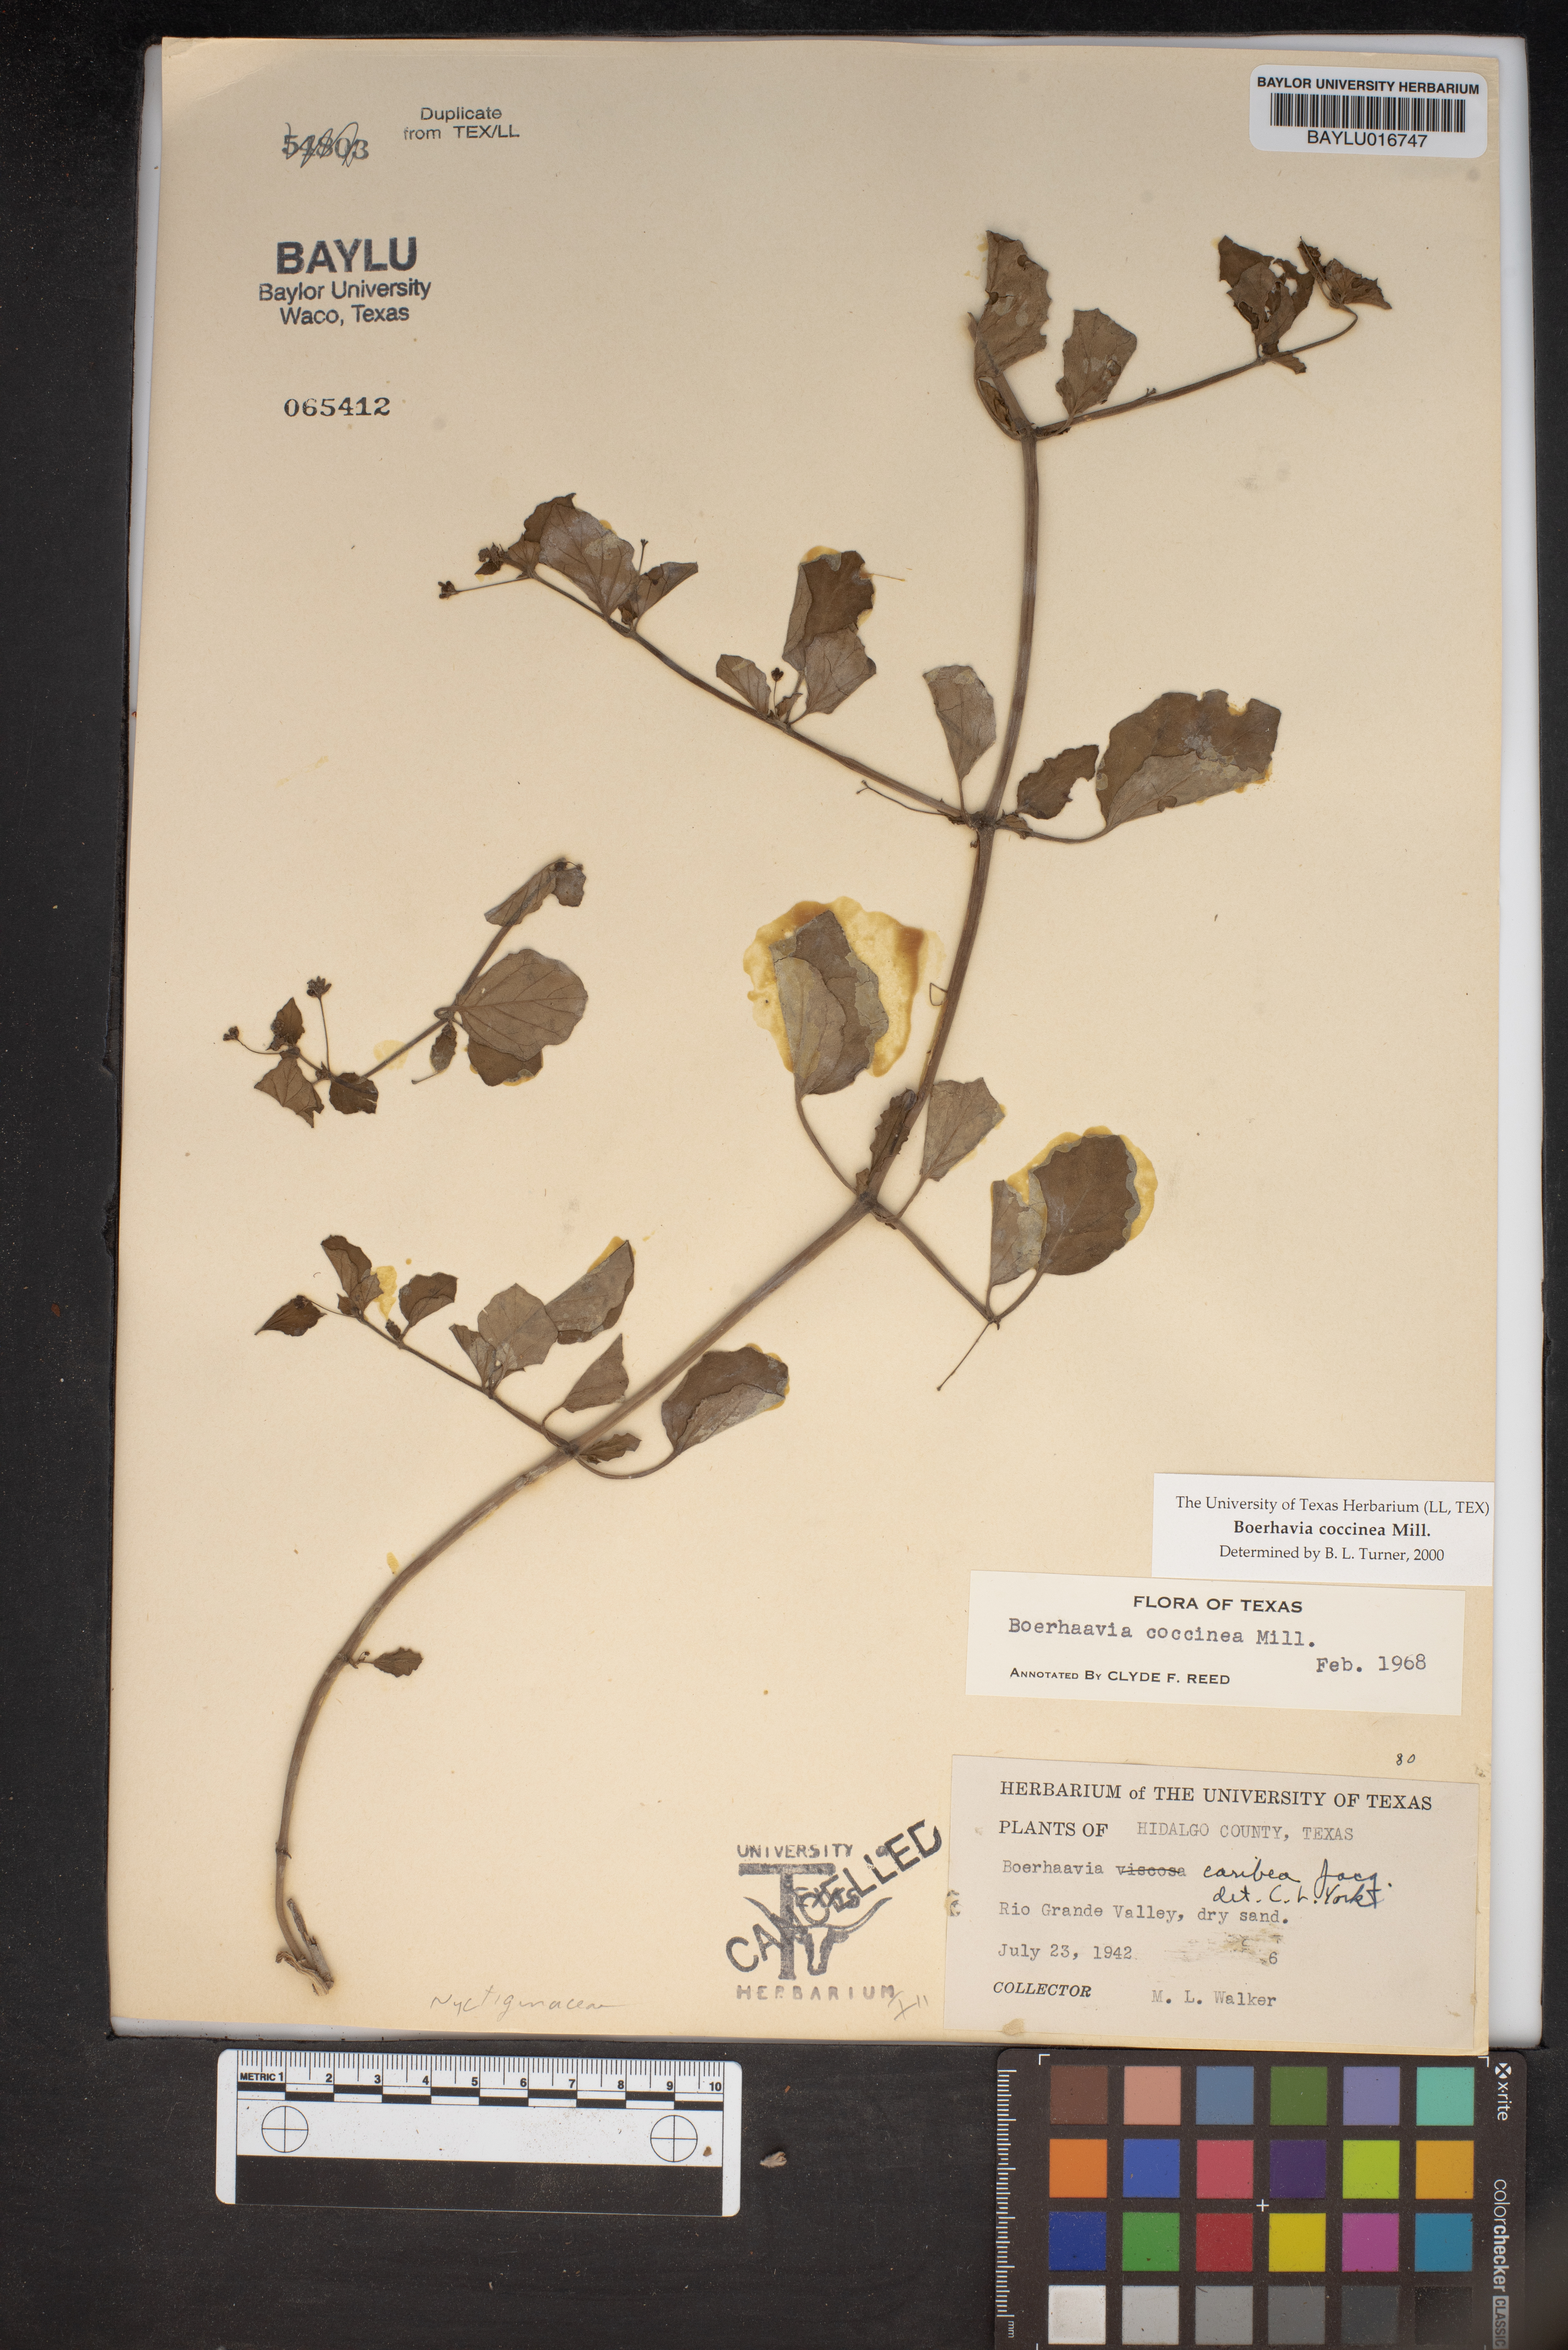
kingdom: Plantae
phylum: Tracheophyta
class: Magnoliopsida
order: Caryophyllales
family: Nyctaginaceae
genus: Boerhavia
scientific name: Boerhavia coccinea
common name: Scarlet spiderling
